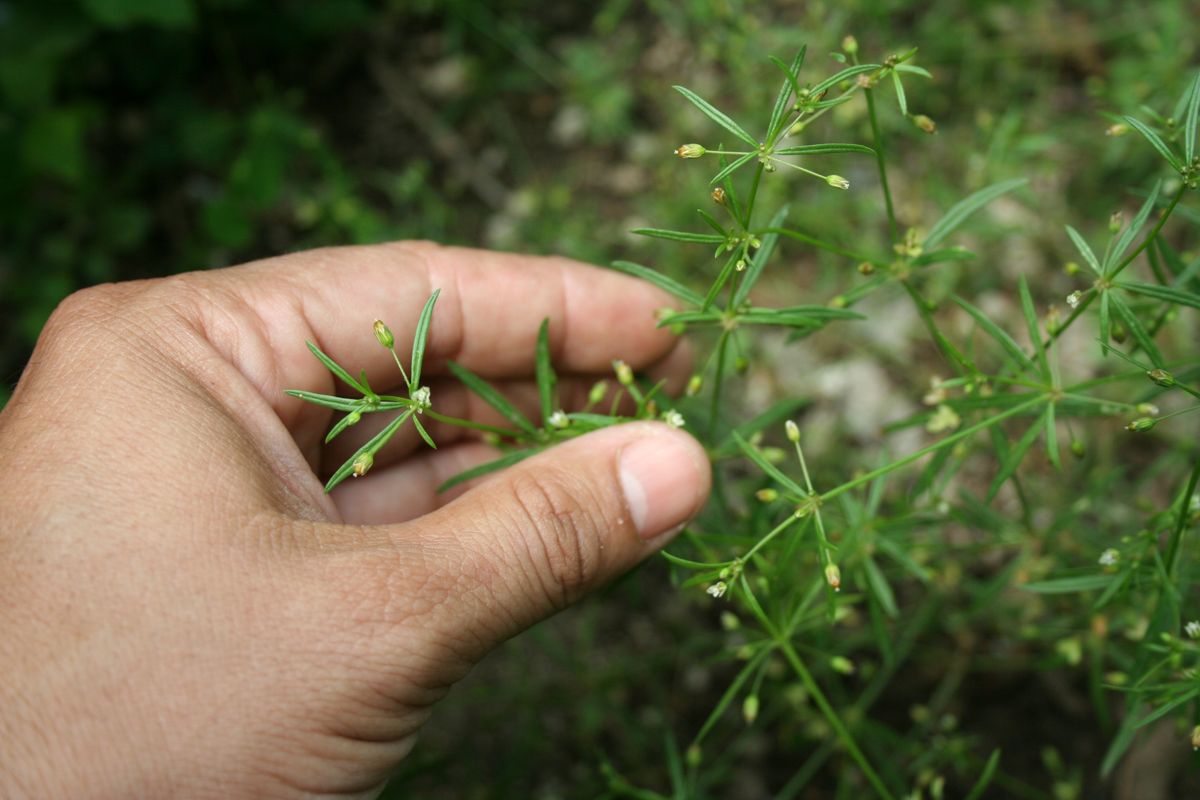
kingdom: Plantae
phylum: Tracheophyta
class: Magnoliopsida
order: Caryophyllales
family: Molluginaceae
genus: Mollugo
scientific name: Mollugo verticillata
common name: Green carpetweed
